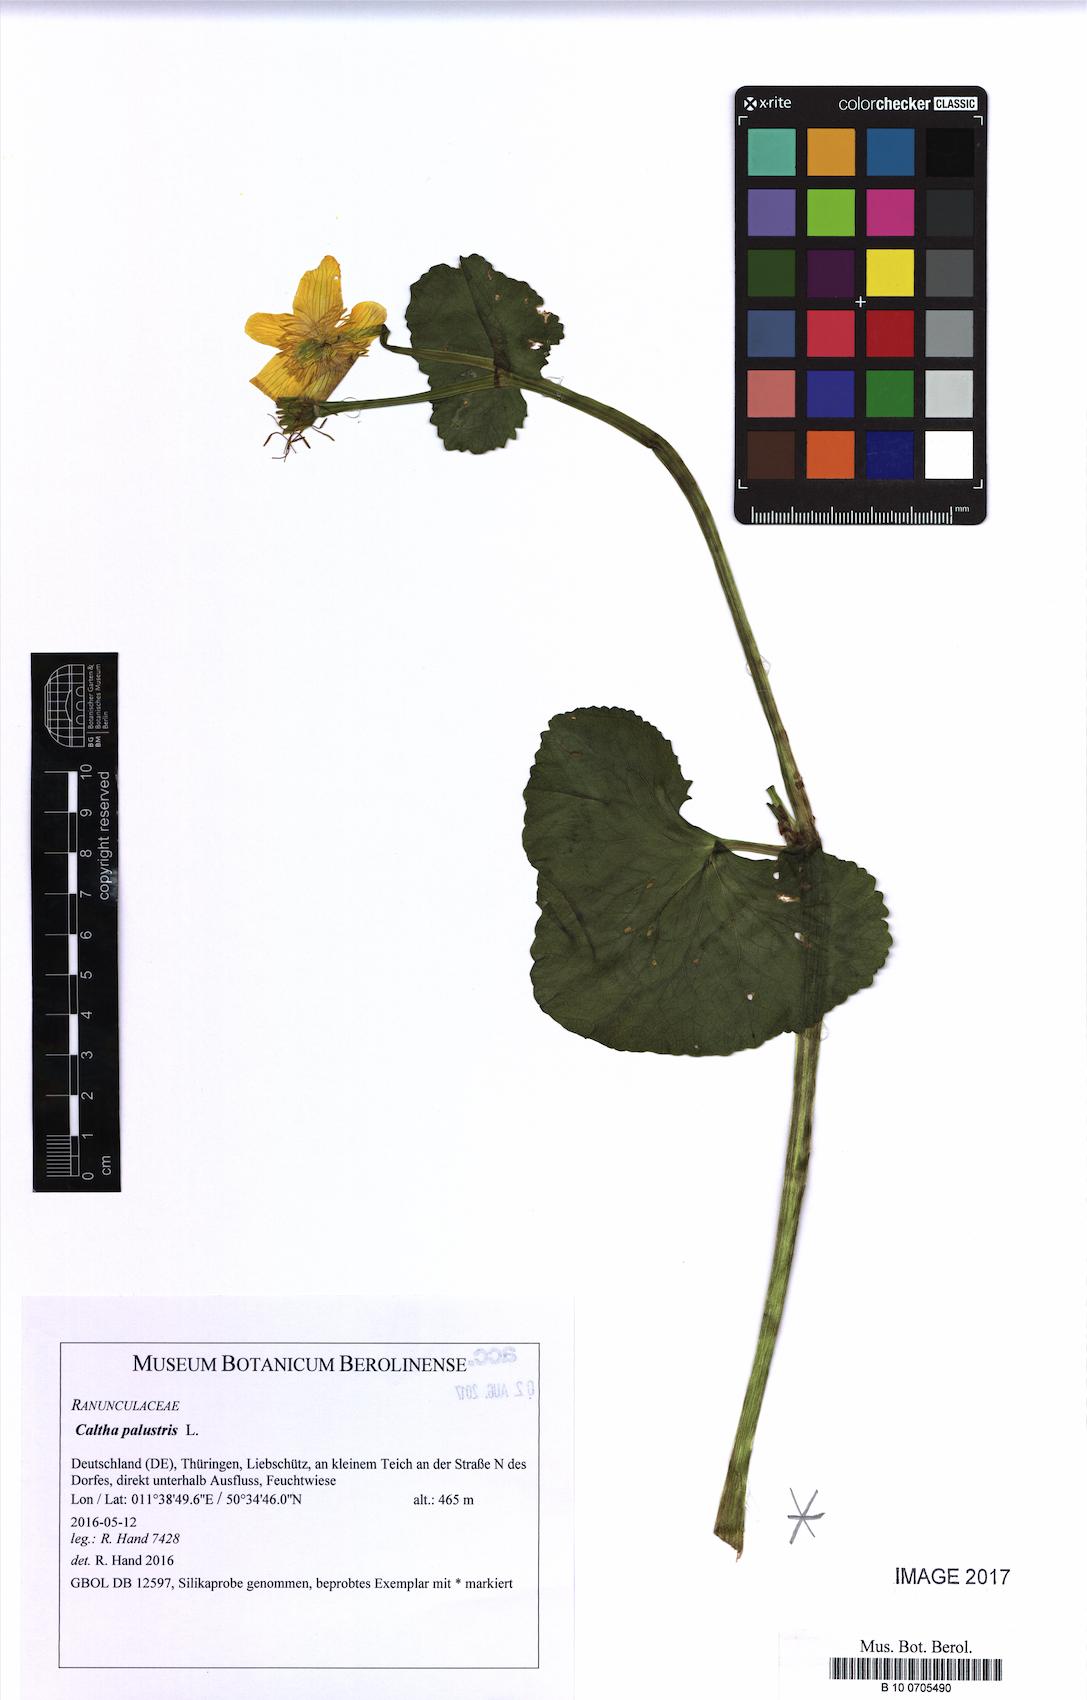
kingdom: Plantae
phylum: Tracheophyta
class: Magnoliopsida
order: Ranunculales
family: Ranunculaceae
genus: Caltha
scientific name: Caltha palustris
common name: Marsh marigold
